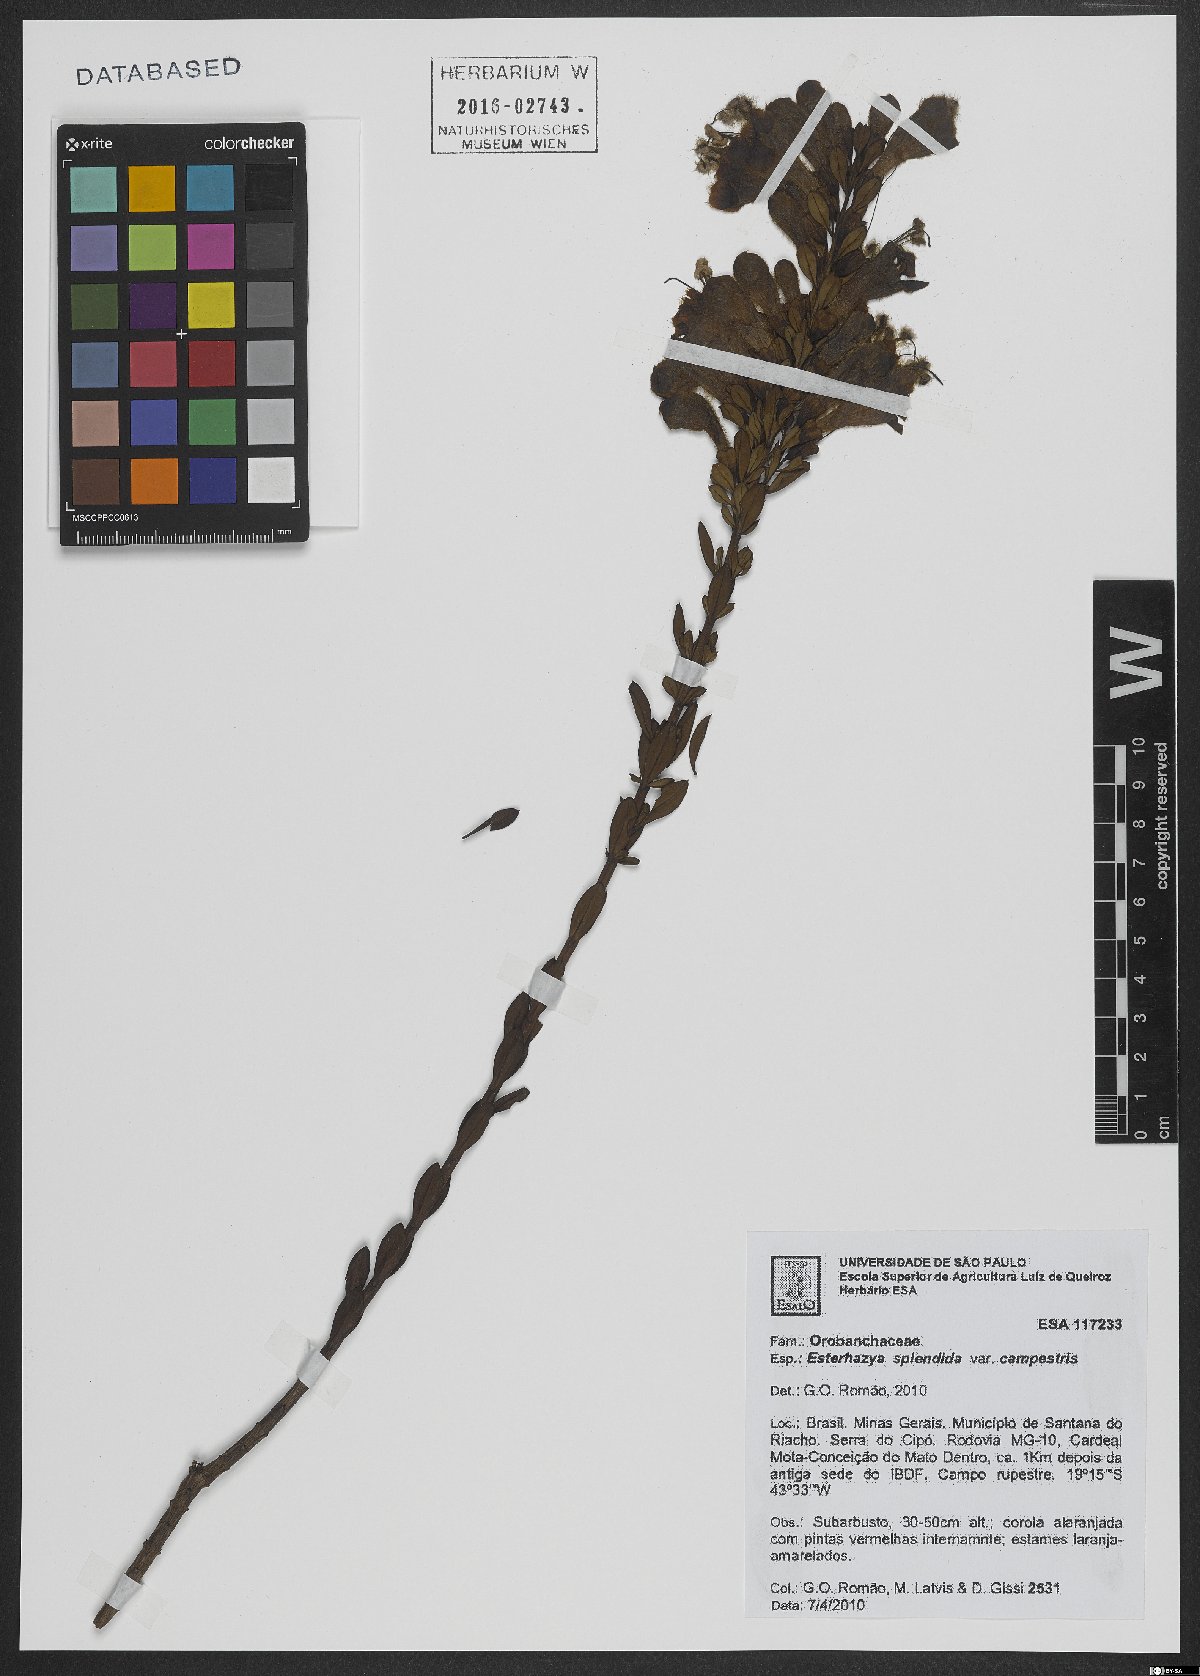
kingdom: Plantae
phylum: Tracheophyta
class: Magnoliopsida
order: Lamiales
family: Orobanchaceae
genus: Esterhazya
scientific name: Esterhazya splendida
